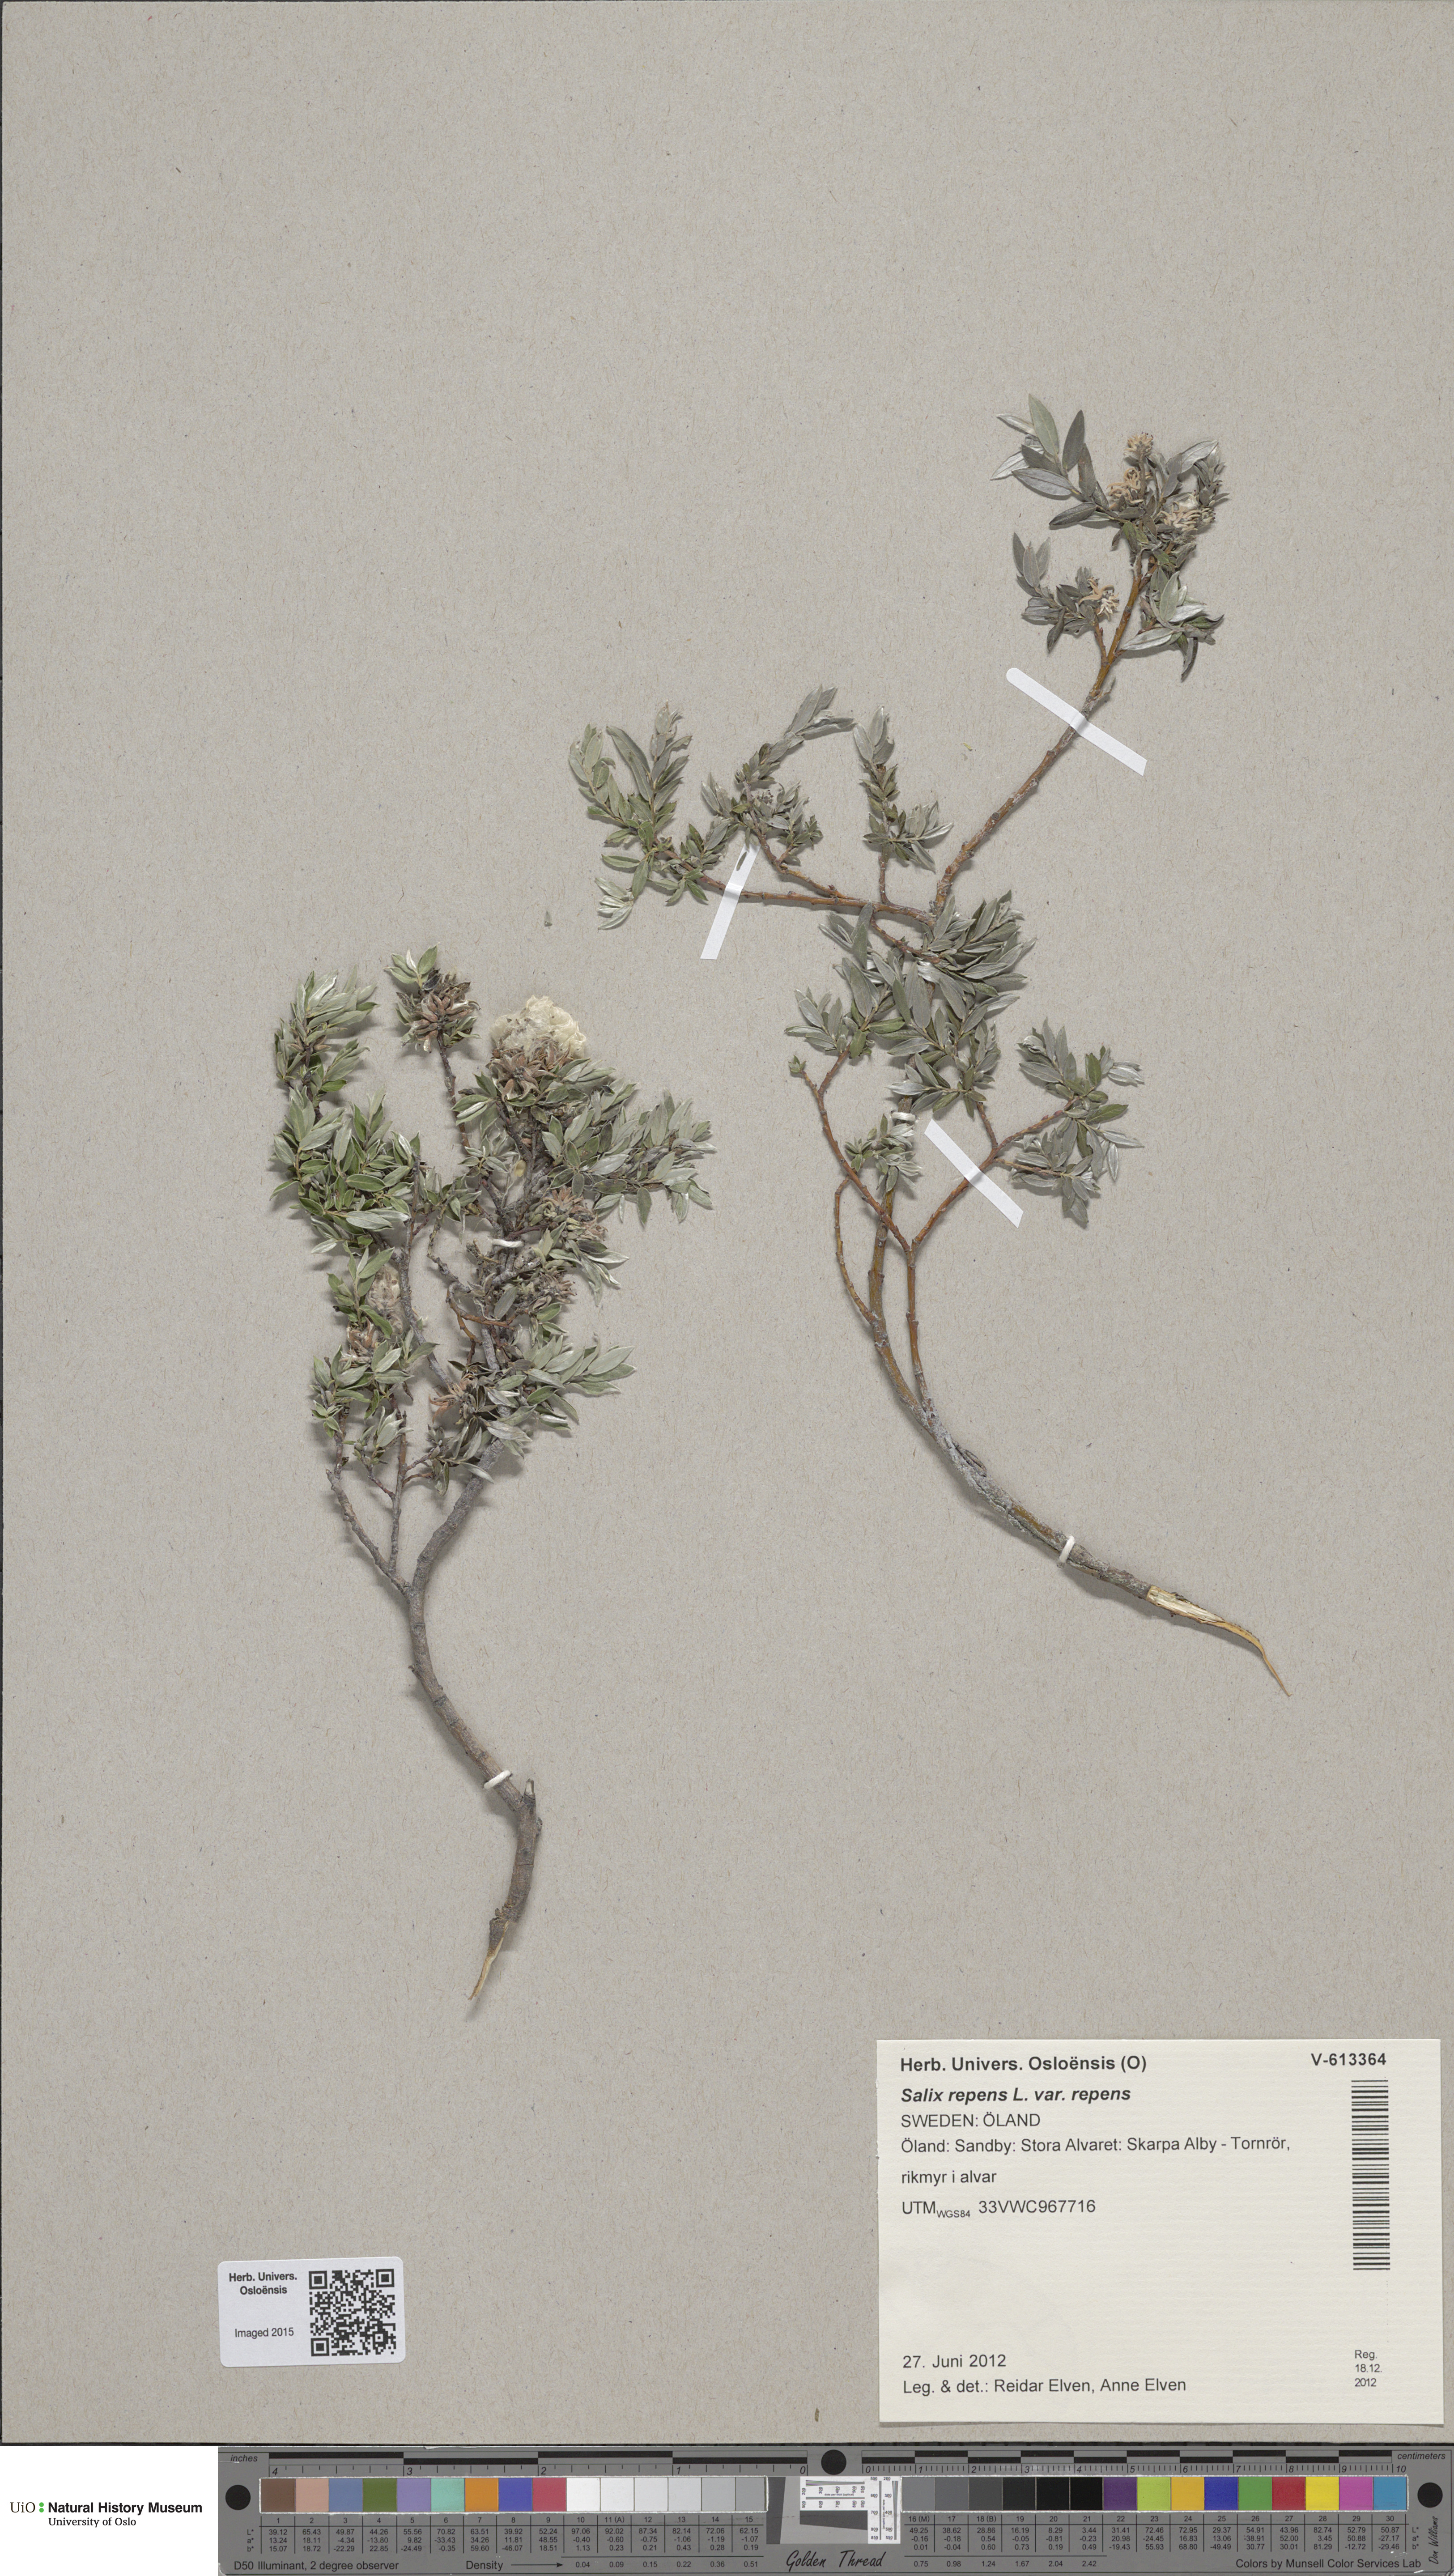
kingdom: Plantae
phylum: Tracheophyta
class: Magnoliopsida
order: Malpighiales
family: Salicaceae
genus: Salix
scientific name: Salix repens
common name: Creeping willow
